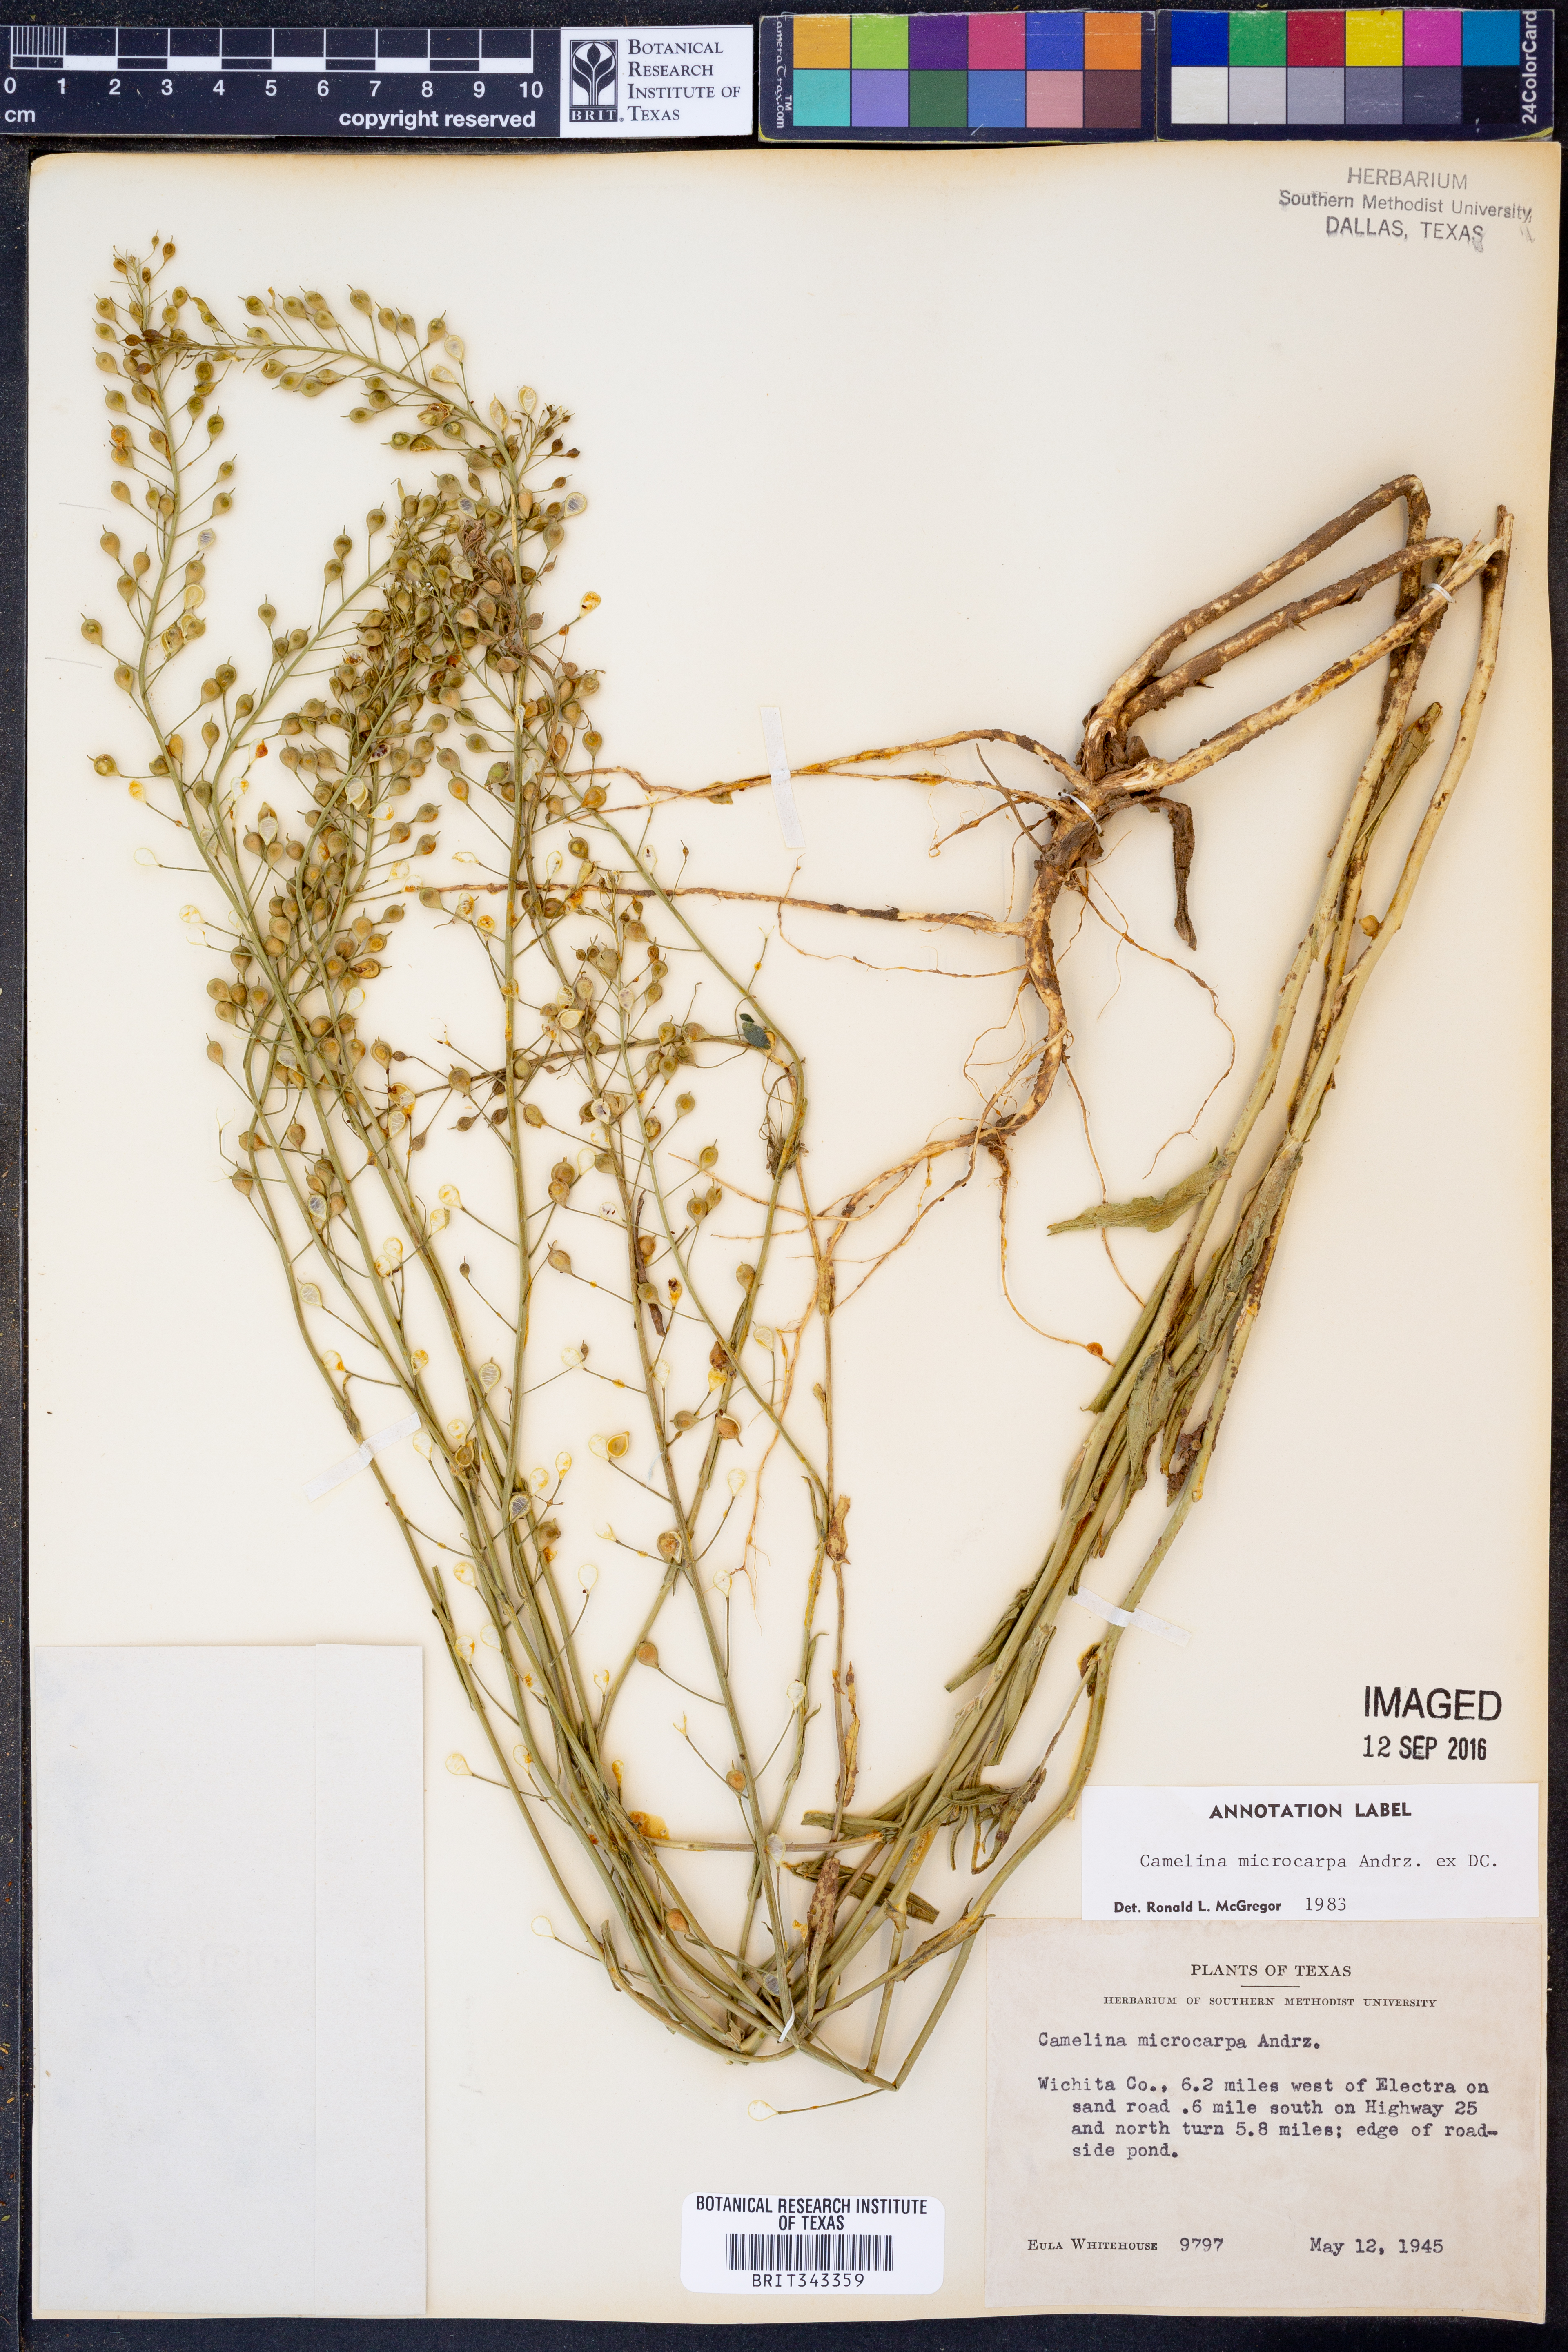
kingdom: Plantae
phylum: Tracheophyta
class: Magnoliopsida
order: Brassicales
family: Brassicaceae
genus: Camelina
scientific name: Camelina microcarpa
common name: Lesser gold-of-pleasure
